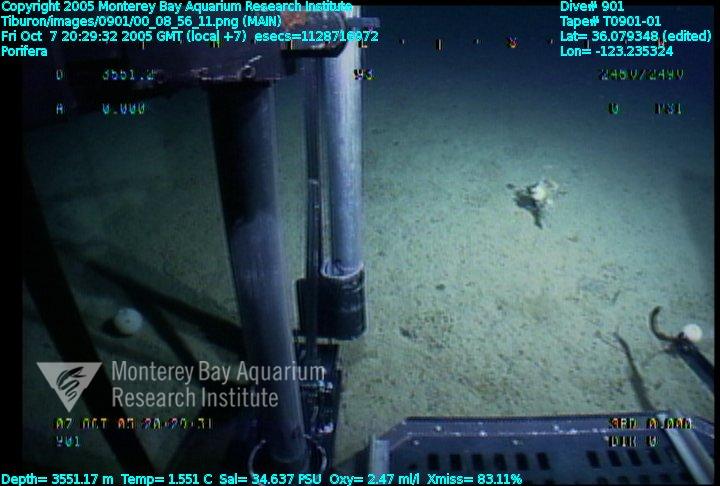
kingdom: Animalia
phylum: Porifera
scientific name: Porifera
